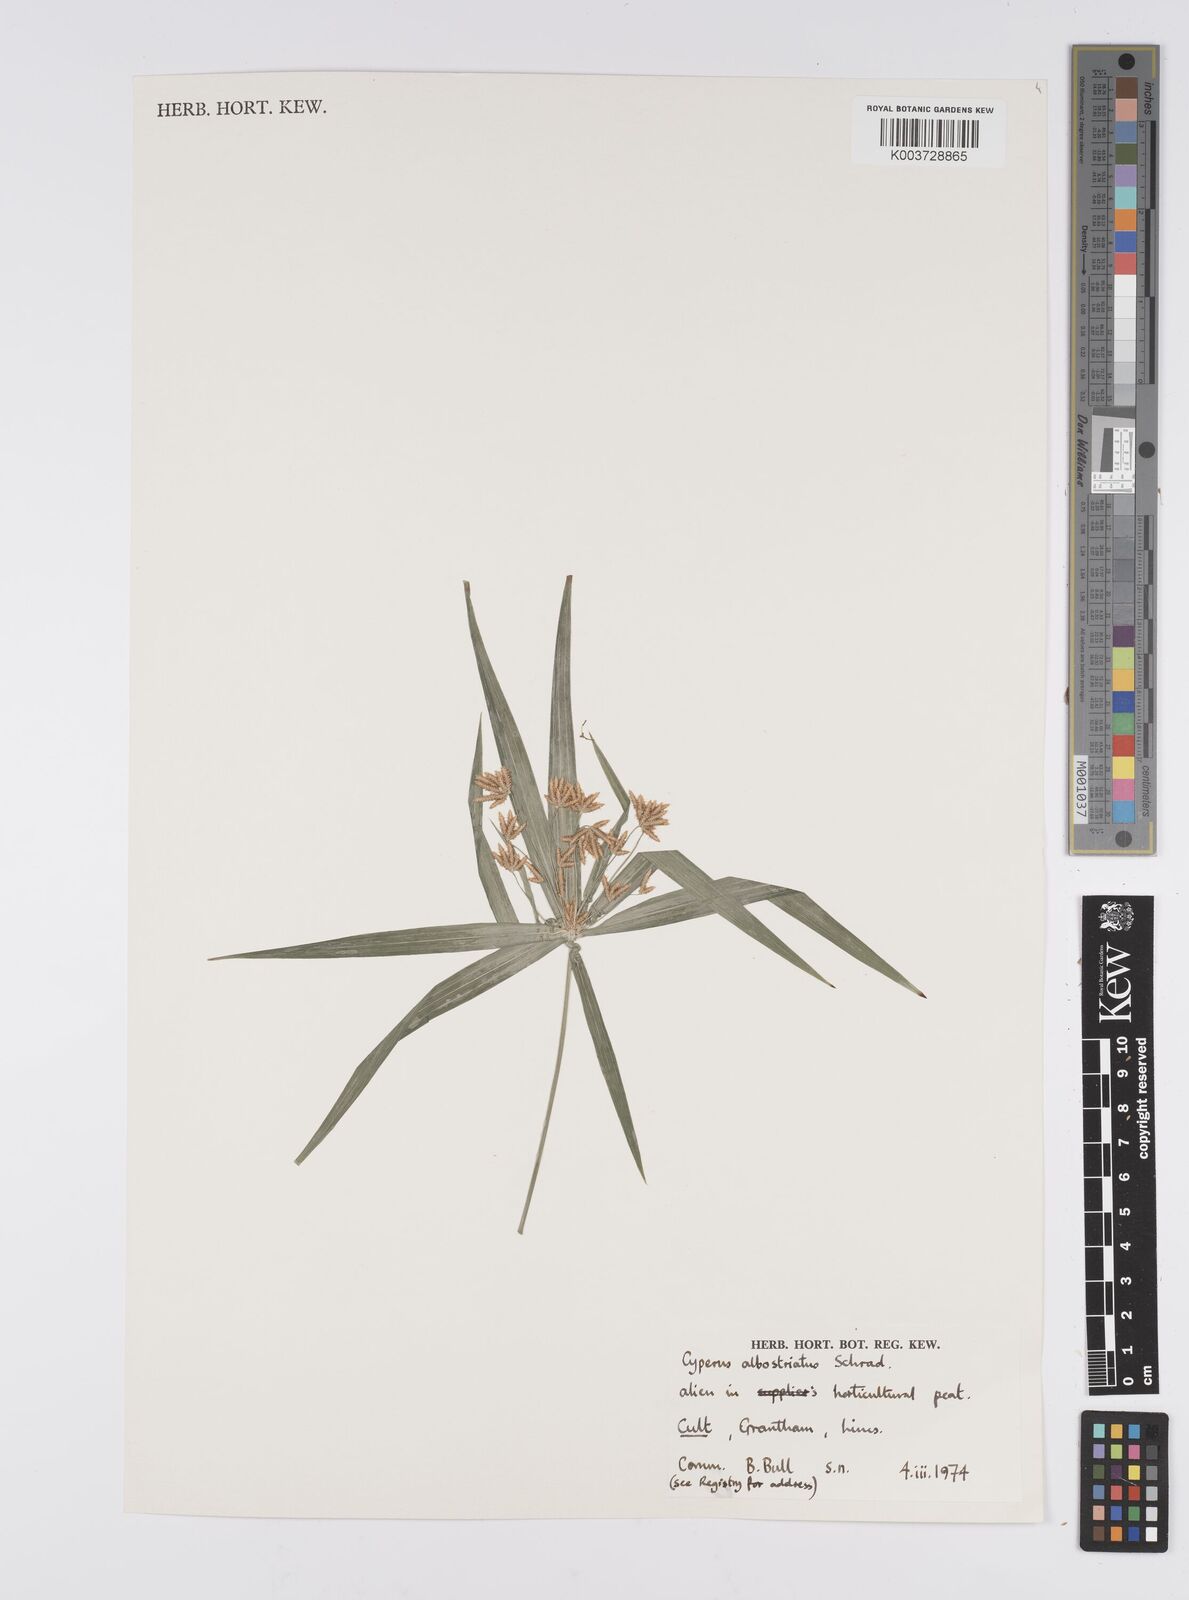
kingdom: Plantae
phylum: Tracheophyta
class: Liliopsida
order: Poales
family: Cyperaceae
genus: Cyperus
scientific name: Cyperus albostriatus
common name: Dwarf umbrella-grass
